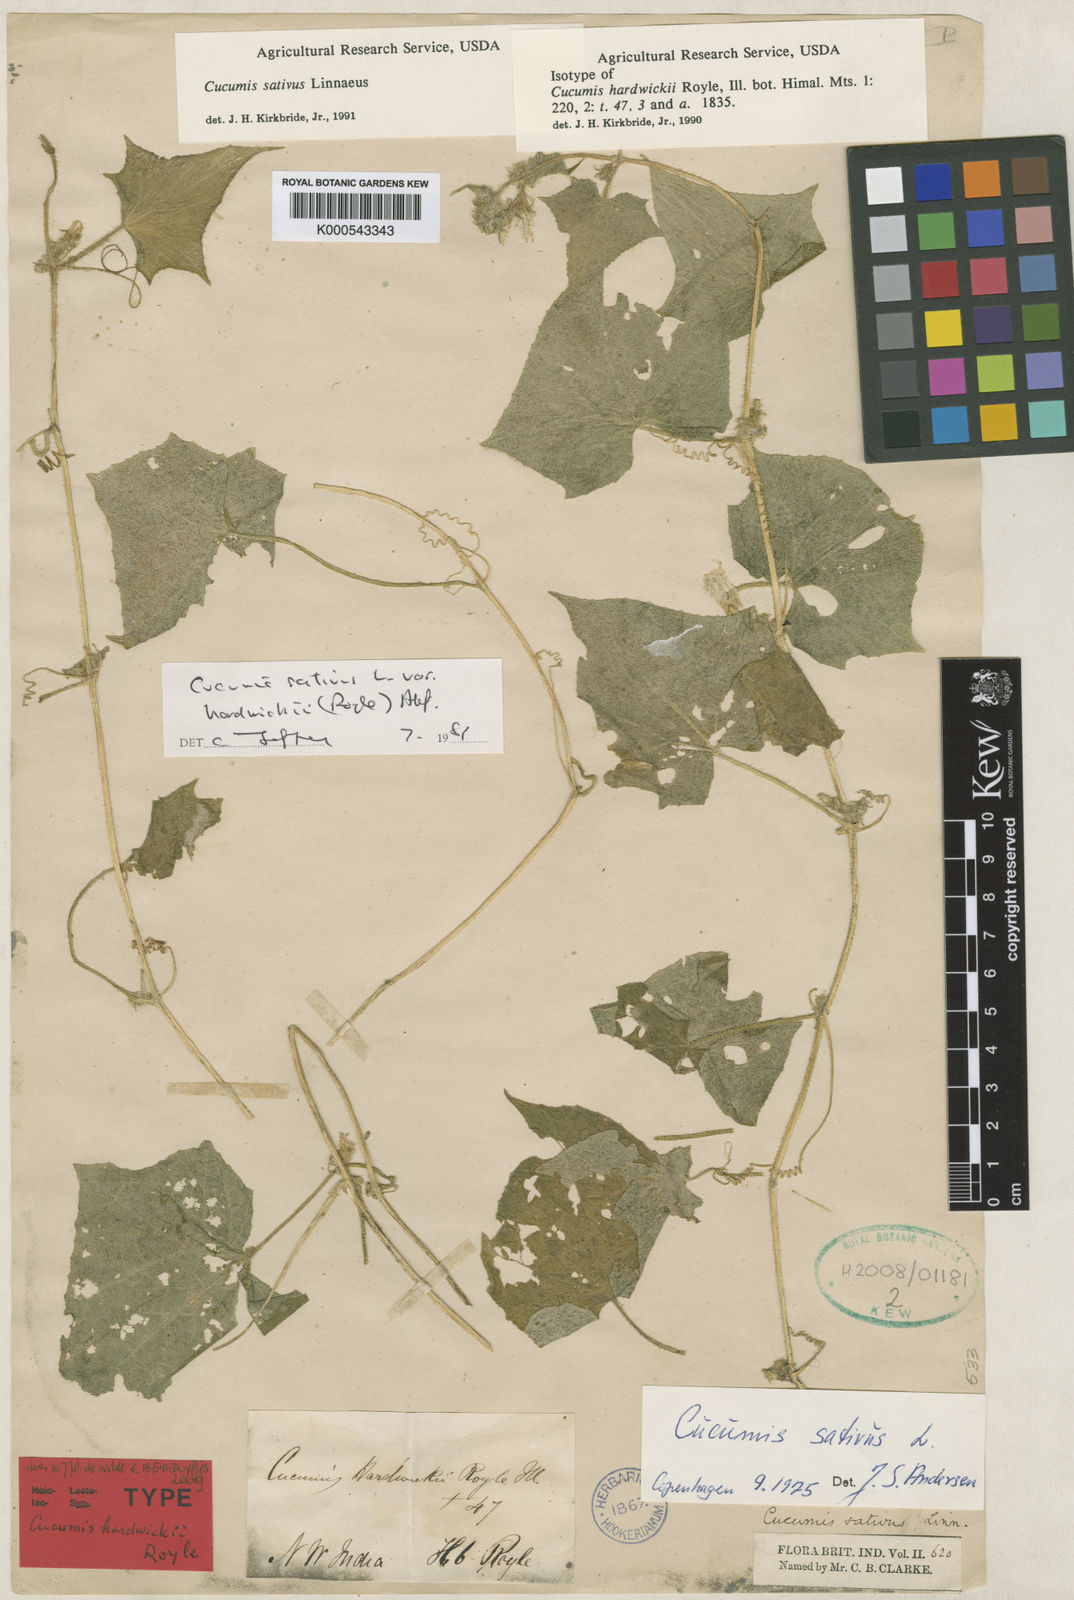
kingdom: Plantae
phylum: Tracheophyta
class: Magnoliopsida
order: Cucurbitales
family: Cucurbitaceae
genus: Cucumis
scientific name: Cucumis sativus
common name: Cucumber
